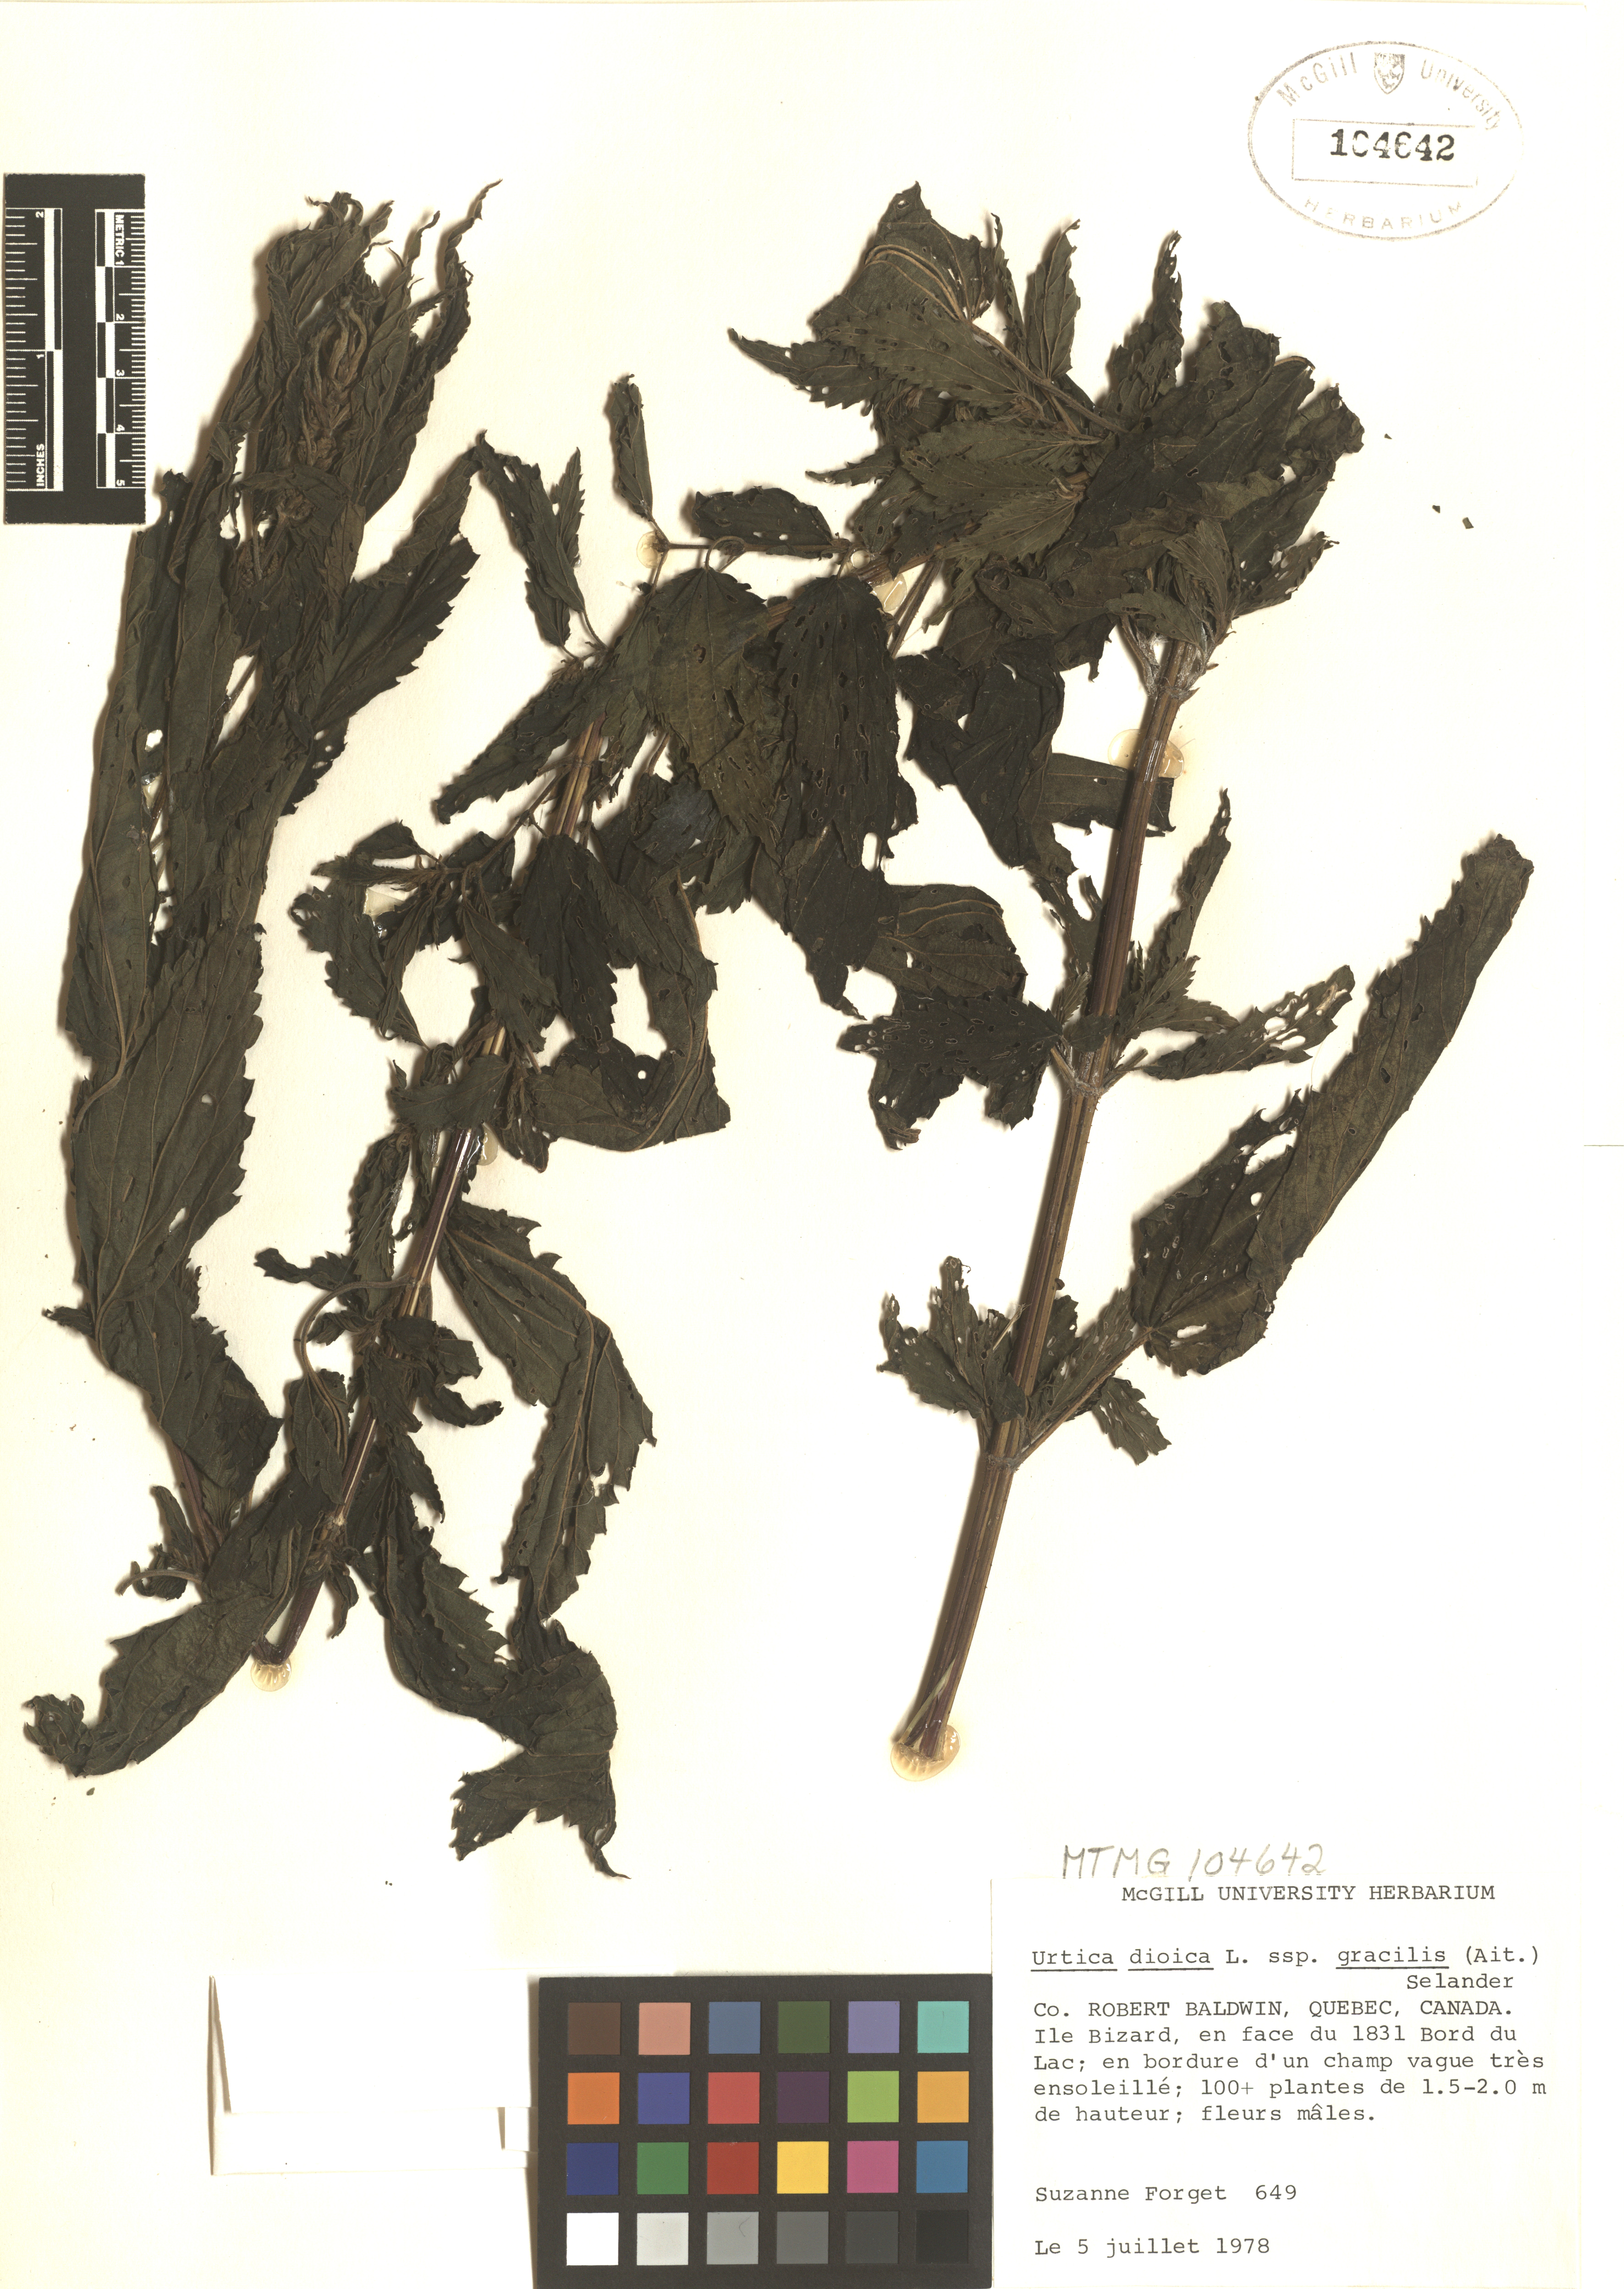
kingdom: Plantae
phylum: Tracheophyta
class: Magnoliopsida
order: Rosales
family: Urticaceae
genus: Urtica
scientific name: Urtica gracilis
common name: Slender stinging nettle
